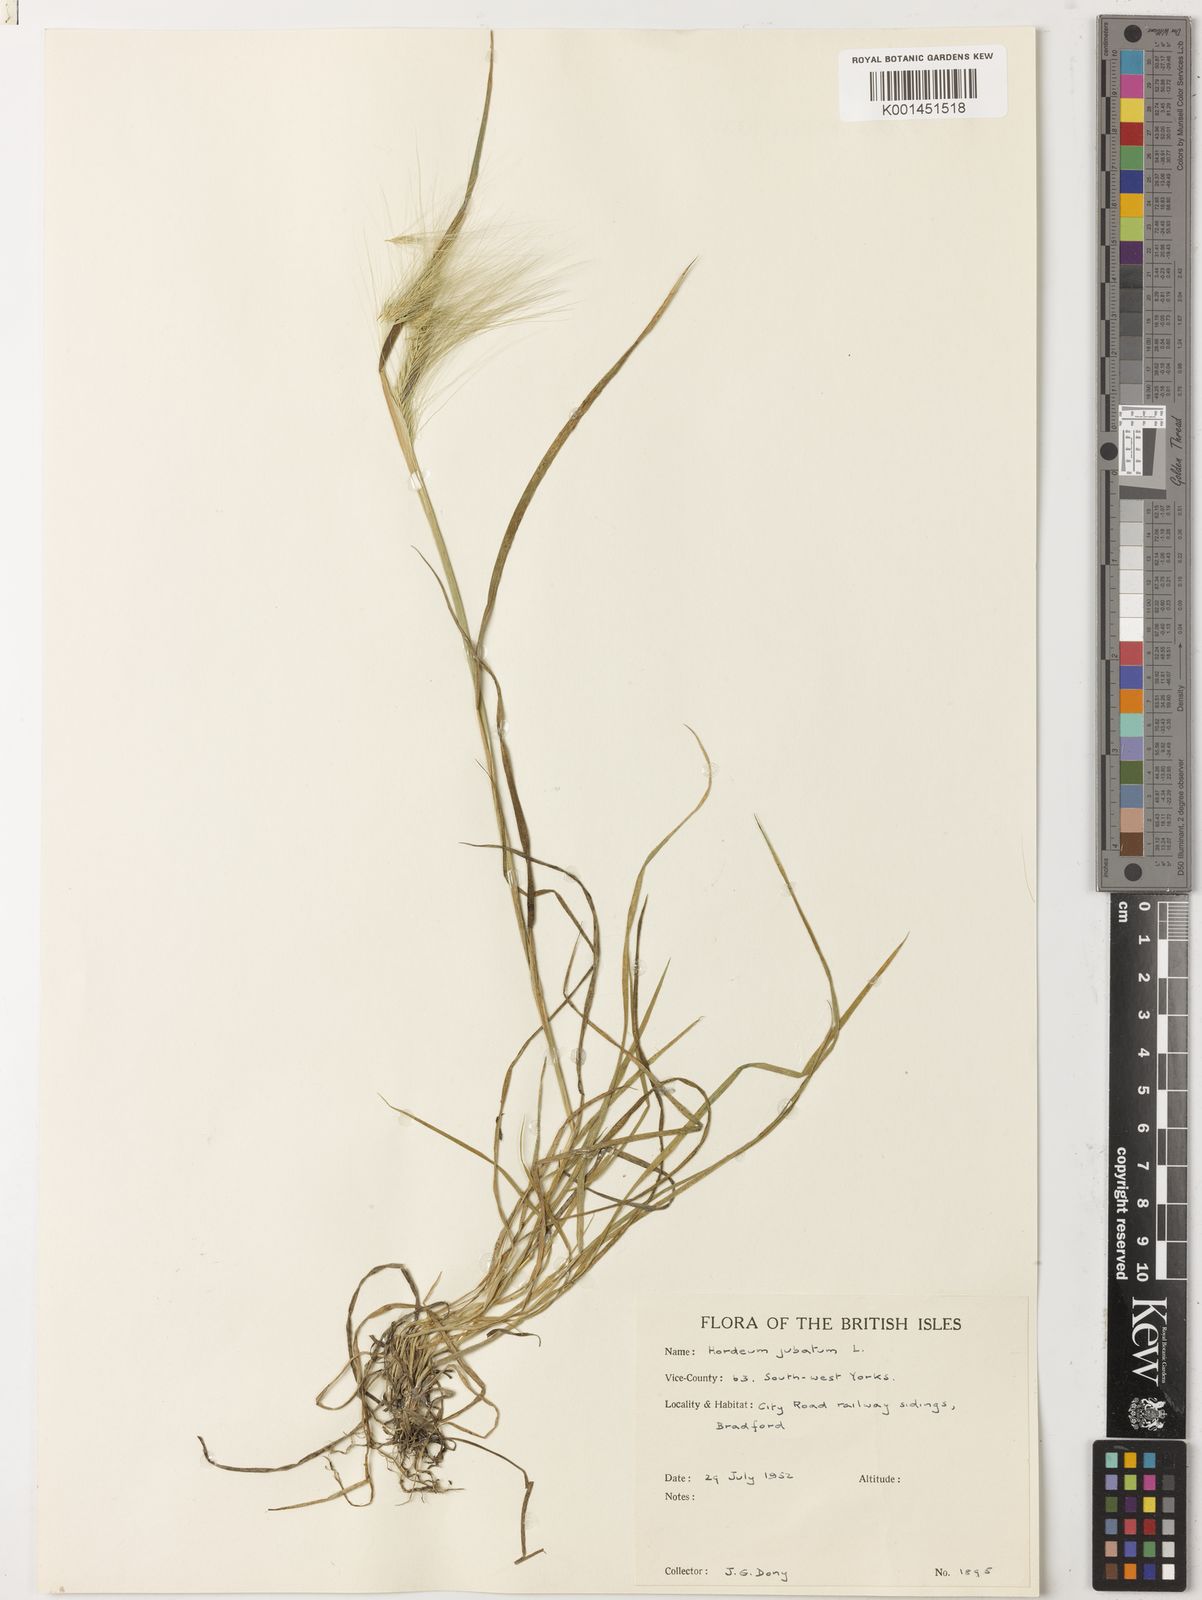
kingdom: Plantae
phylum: Tracheophyta
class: Liliopsida
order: Poales
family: Poaceae
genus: Hordeum
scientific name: Hordeum jubatum
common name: Foxtail barley
